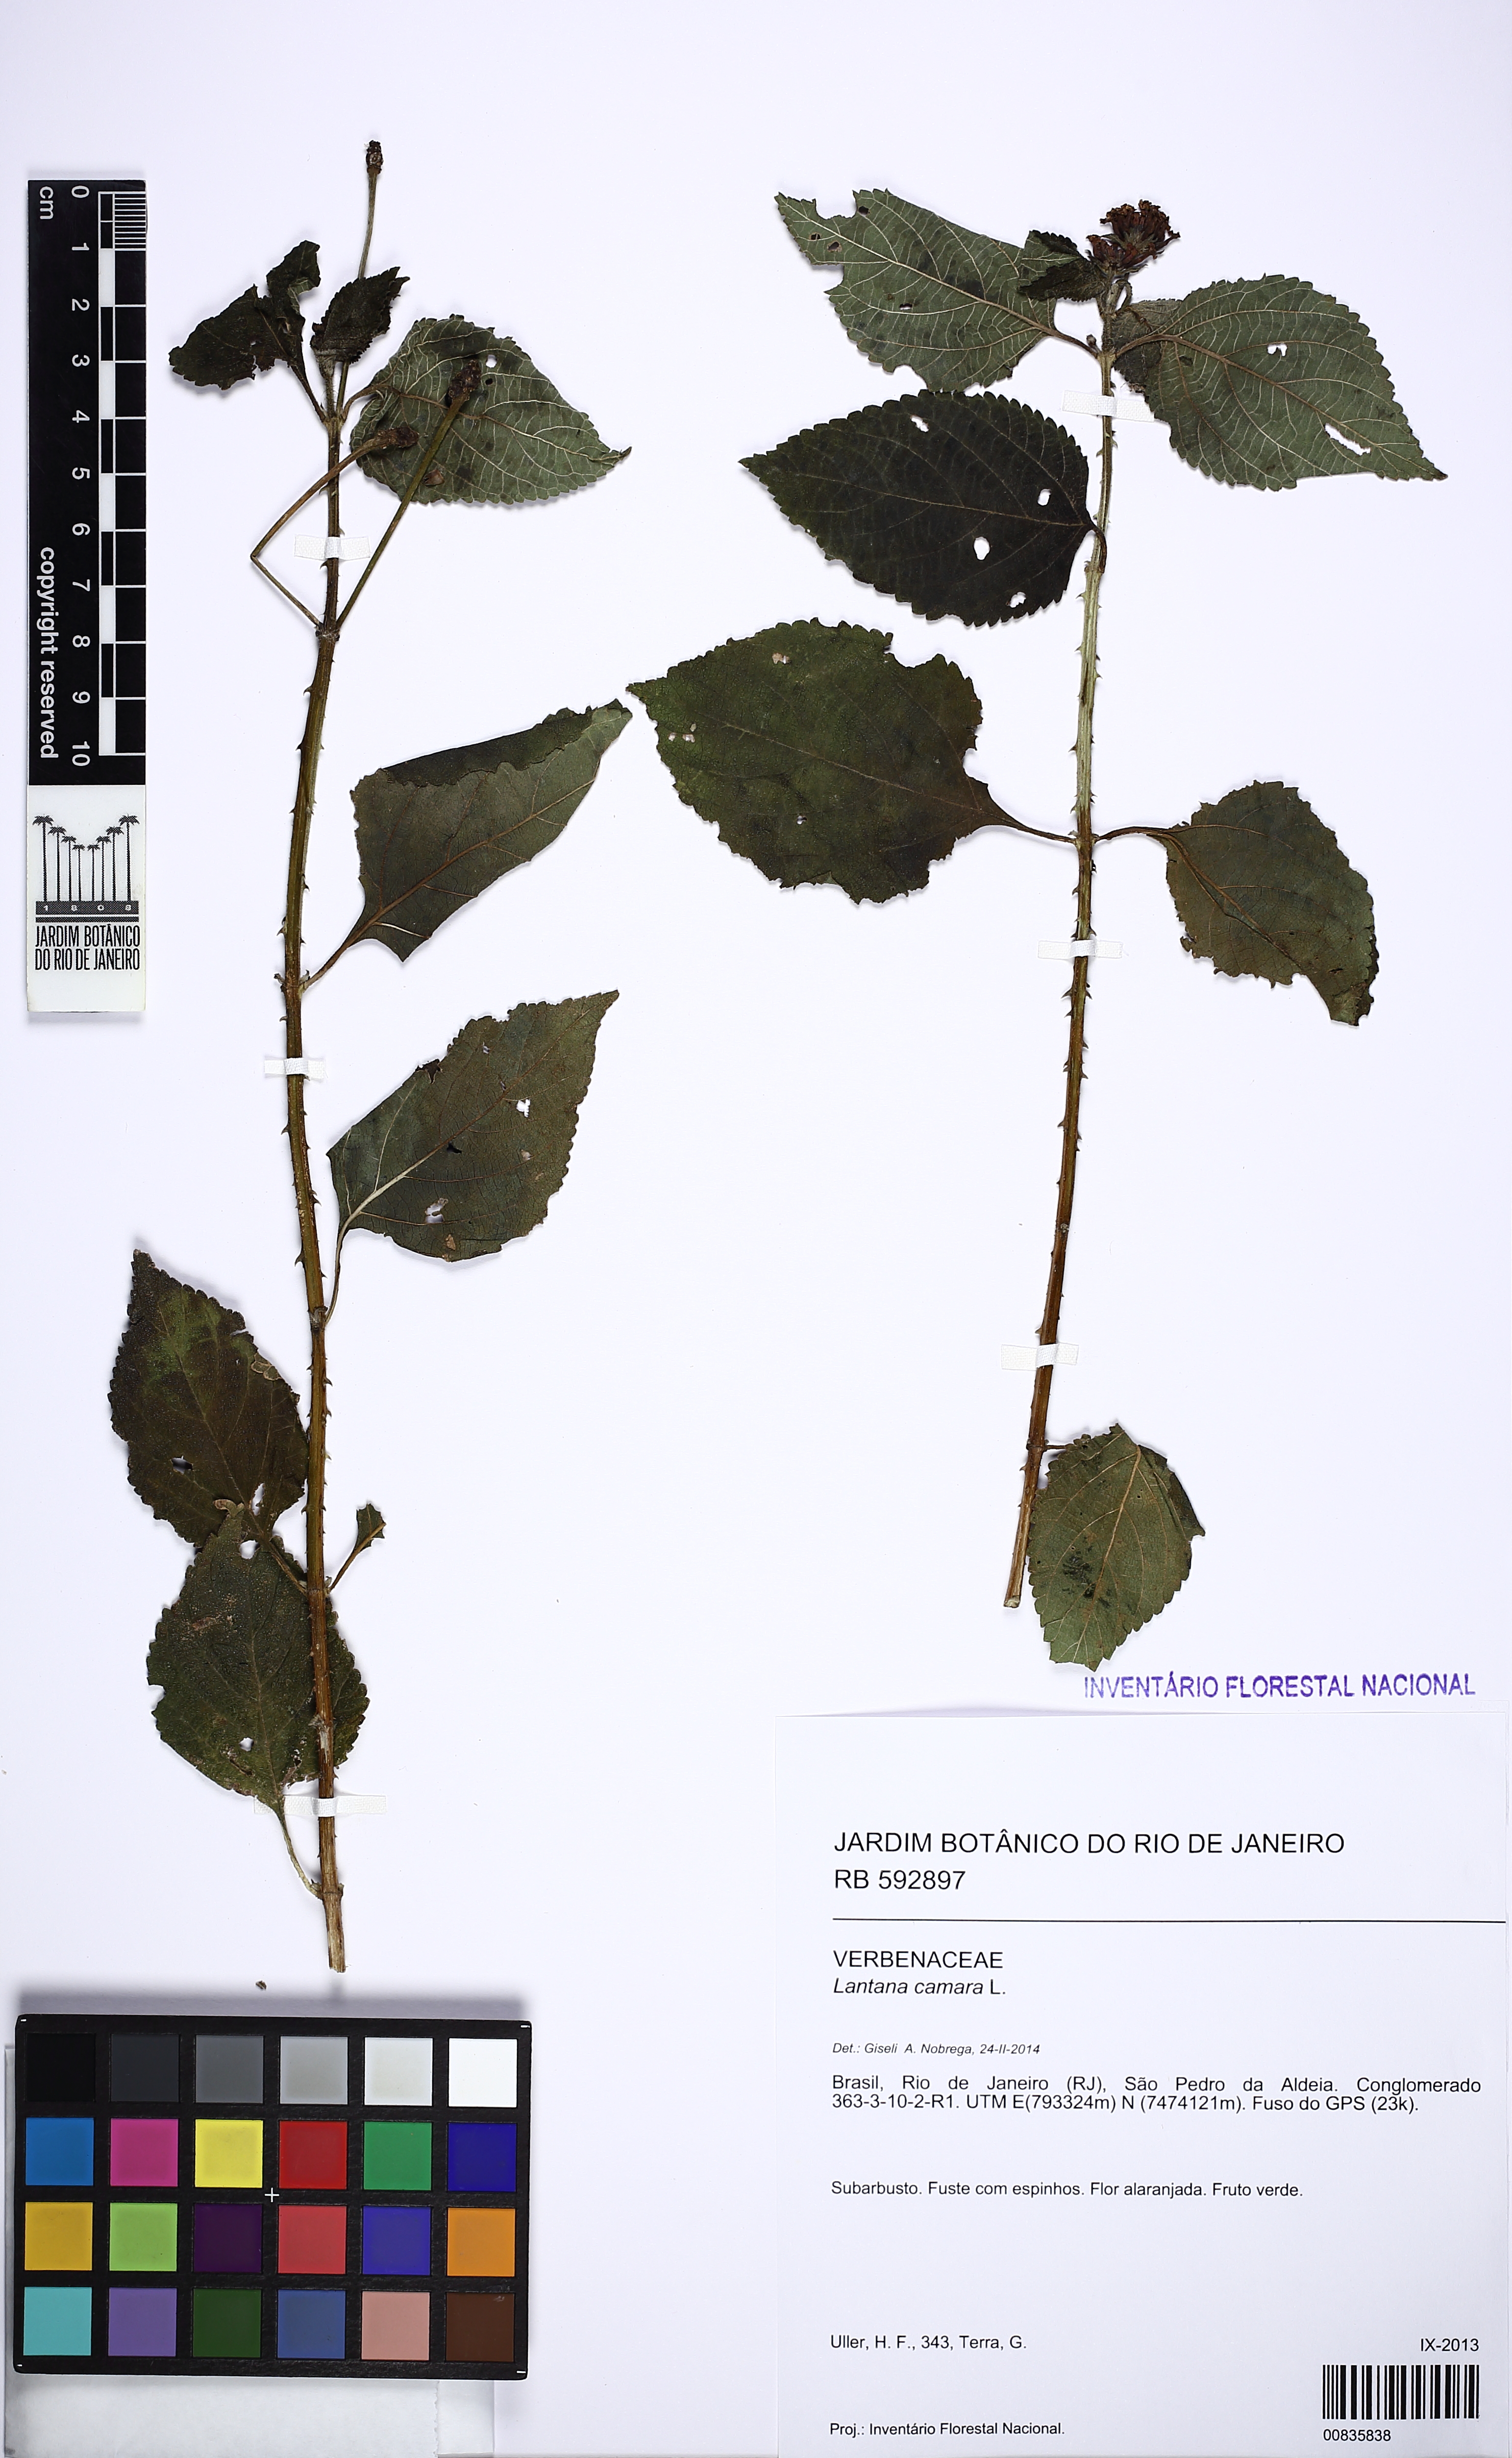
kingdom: Plantae
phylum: Tracheophyta
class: Magnoliopsida
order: Lamiales
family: Verbenaceae
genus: Lantana
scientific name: Lantana camara
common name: Lantana
